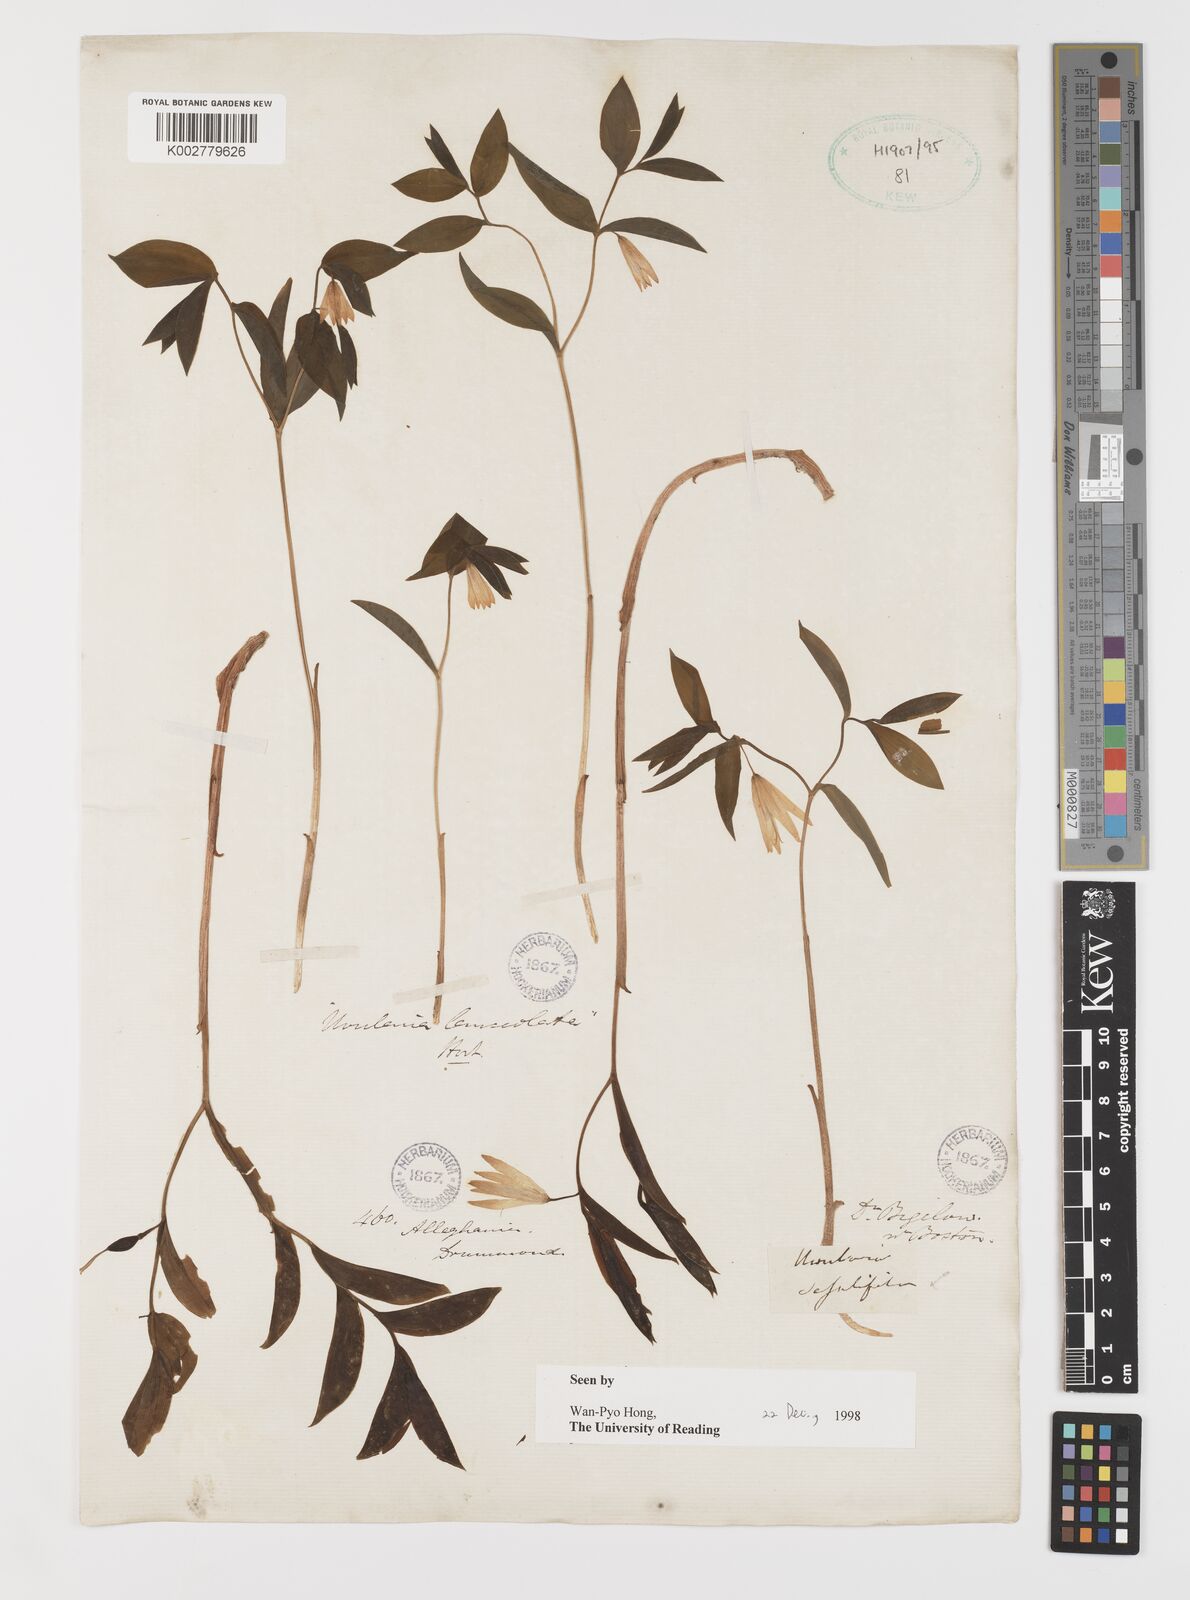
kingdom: Plantae
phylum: Tracheophyta
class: Liliopsida
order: Liliales
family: Liliaceae
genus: Streptopus
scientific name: Streptopus lanceolatus
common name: Rose mandarin
